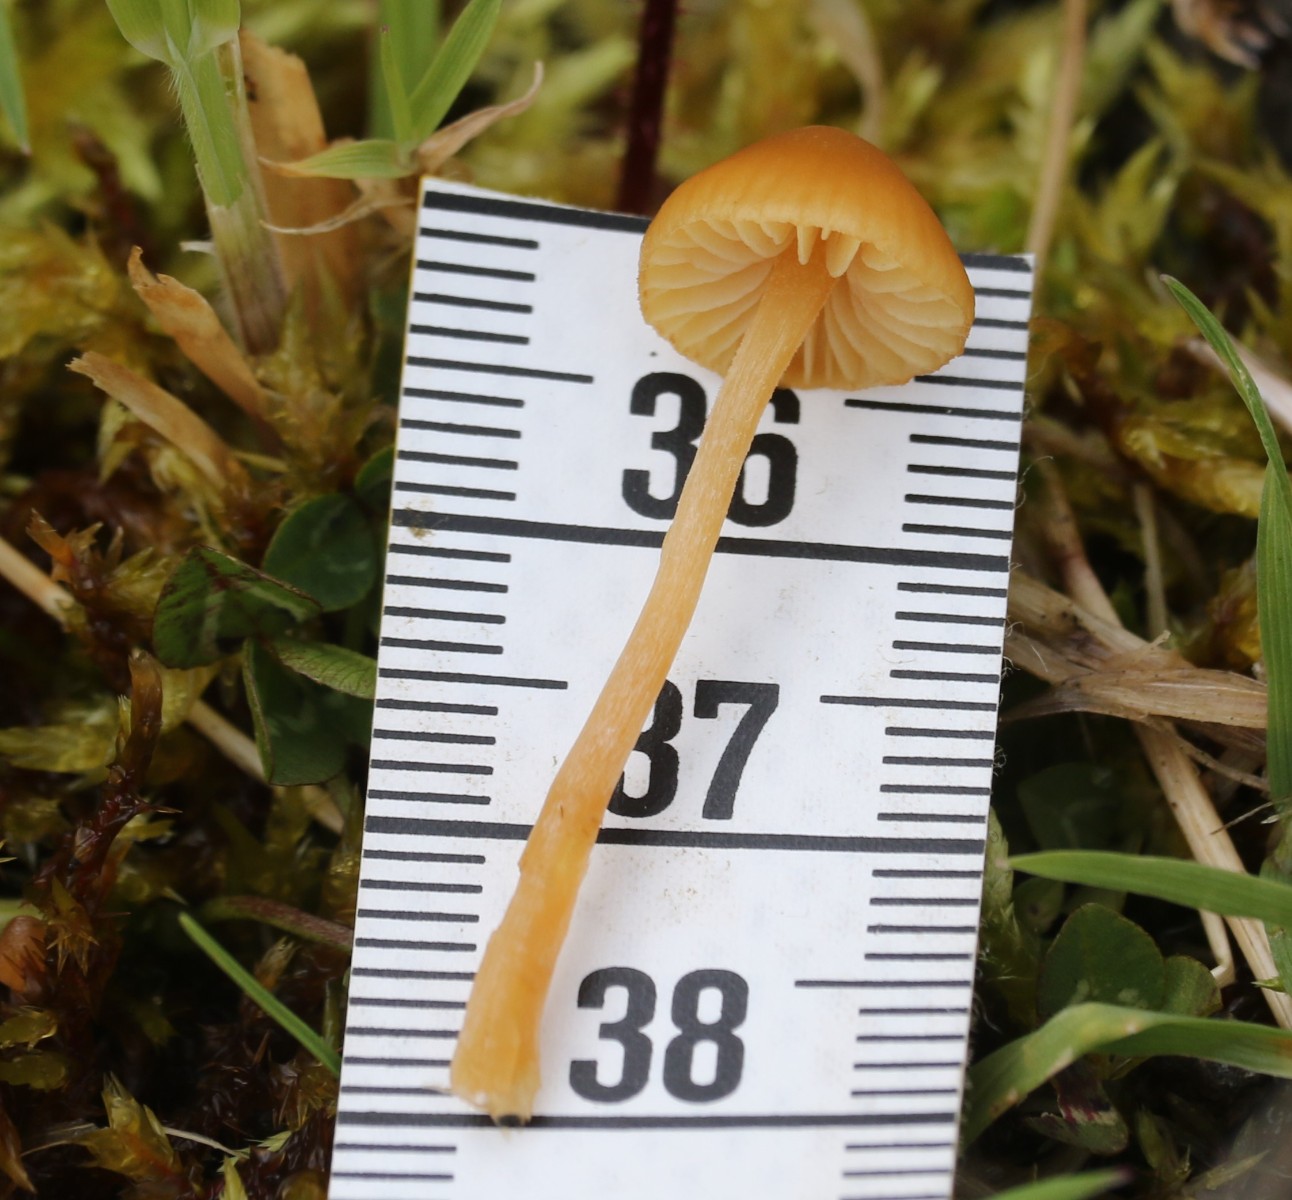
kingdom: Fungi
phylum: Basidiomycota
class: Agaricomycetes
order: Agaricales
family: Hymenogastraceae
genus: Galerina
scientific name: Galerina
